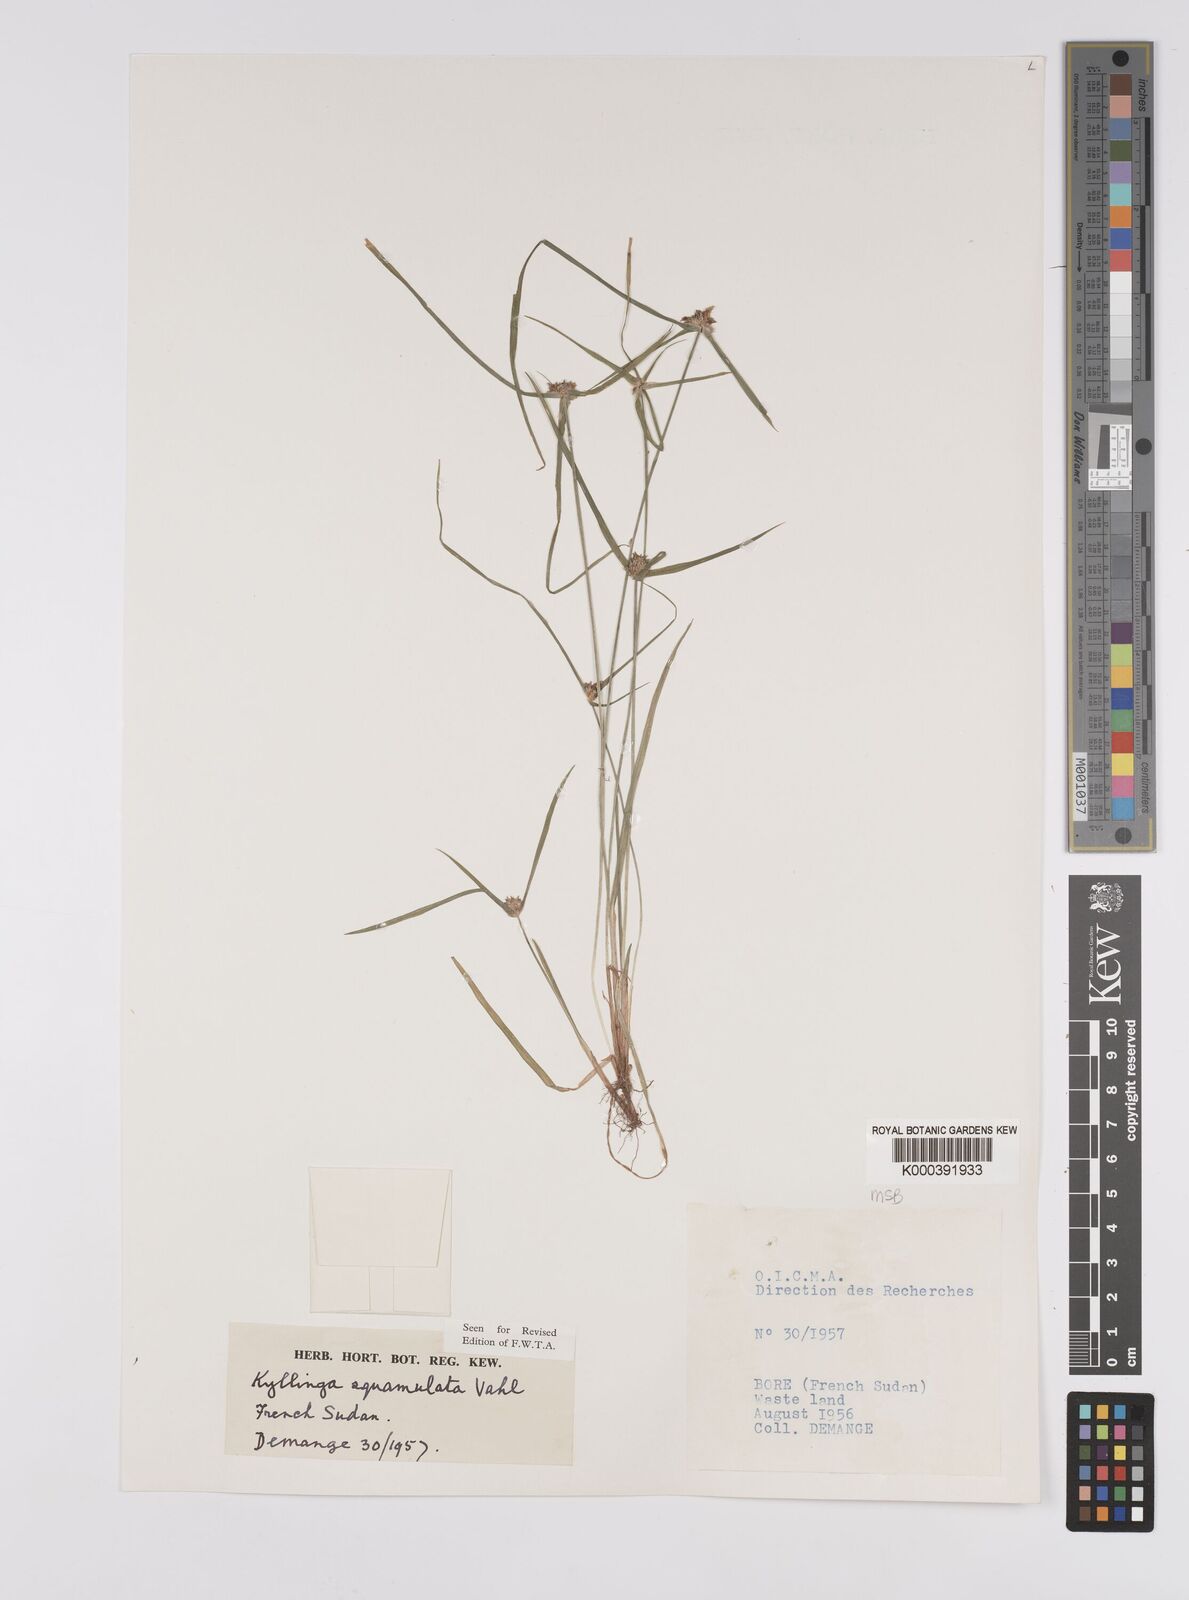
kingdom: Plantae
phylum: Tracheophyta
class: Liliopsida
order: Poales
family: Cyperaceae
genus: Cyperus
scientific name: Cyperus metzii
